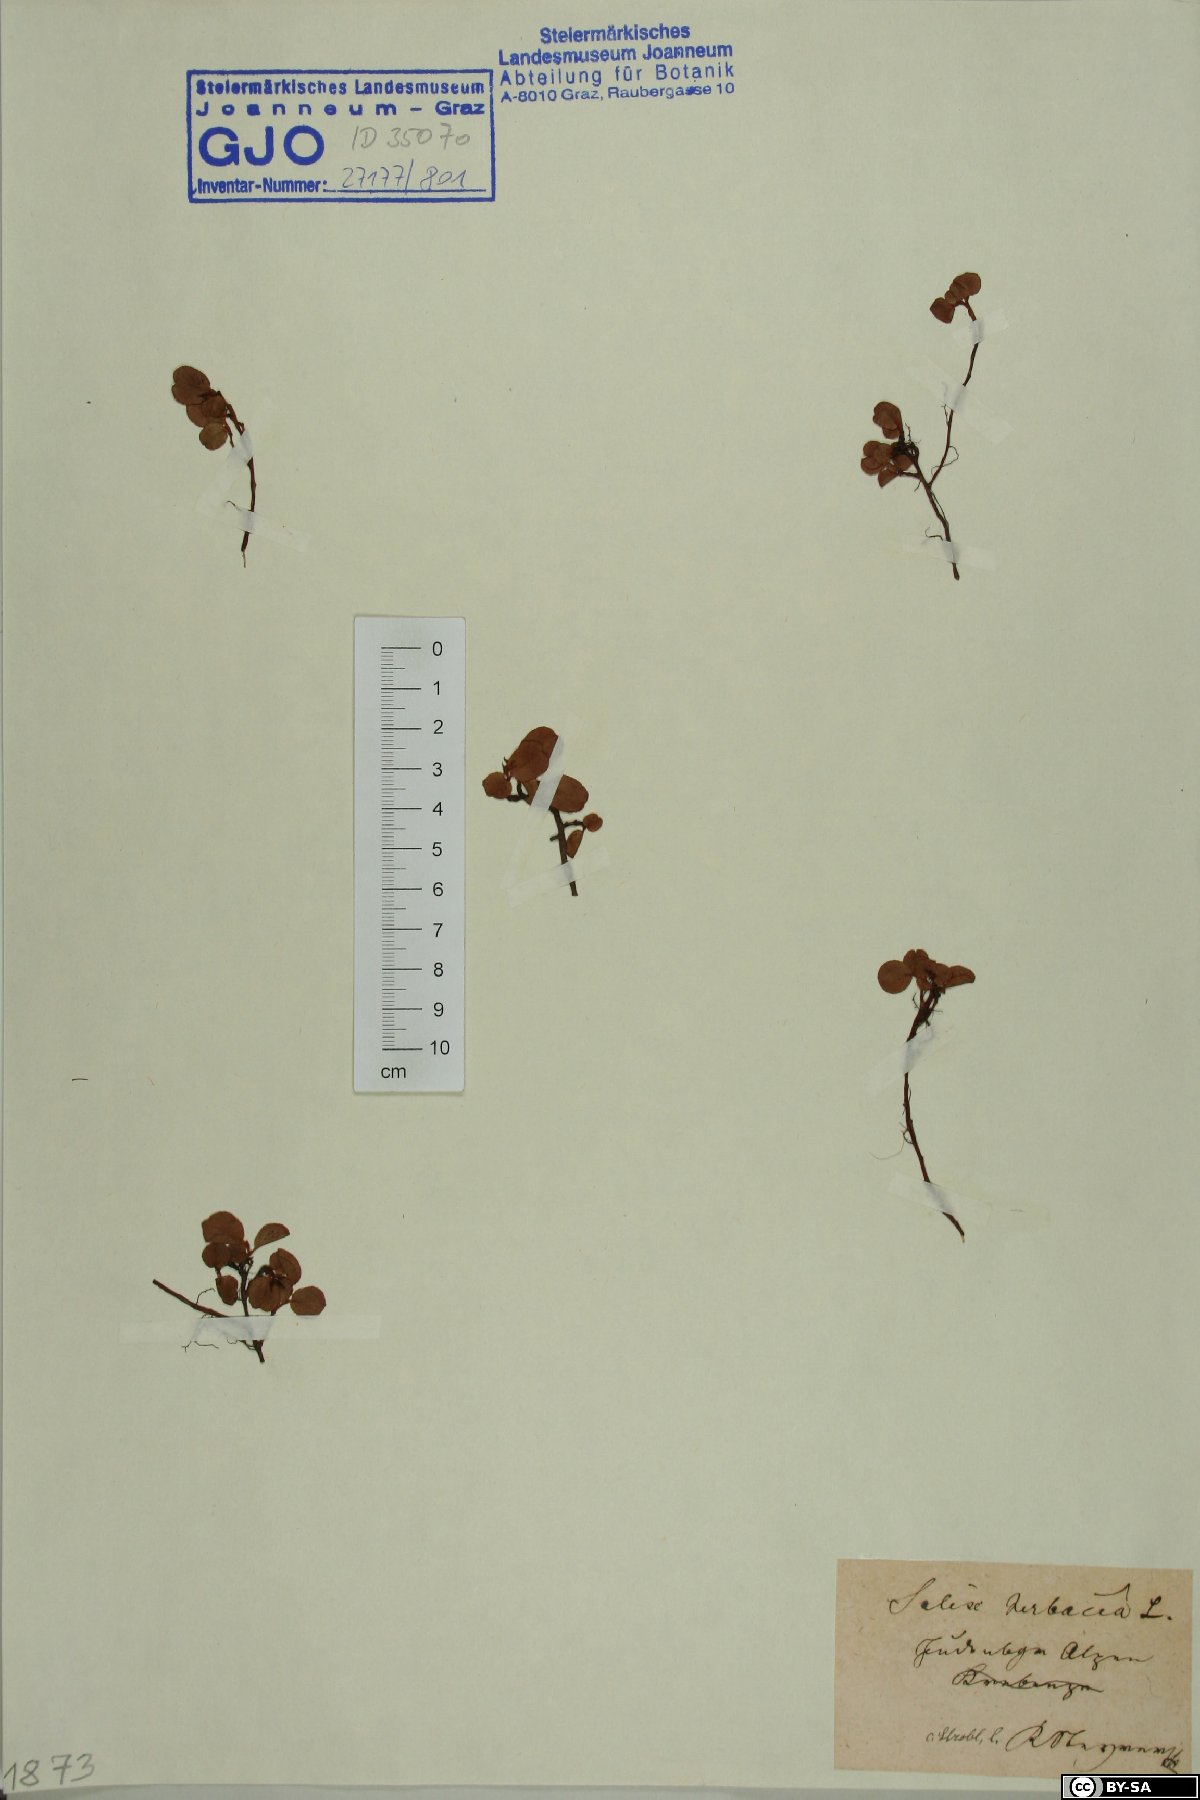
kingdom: Plantae
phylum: Tracheophyta
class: Magnoliopsida
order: Malpighiales
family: Salicaceae
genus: Salix
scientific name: Salix herbacea
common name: Dwarf willow
